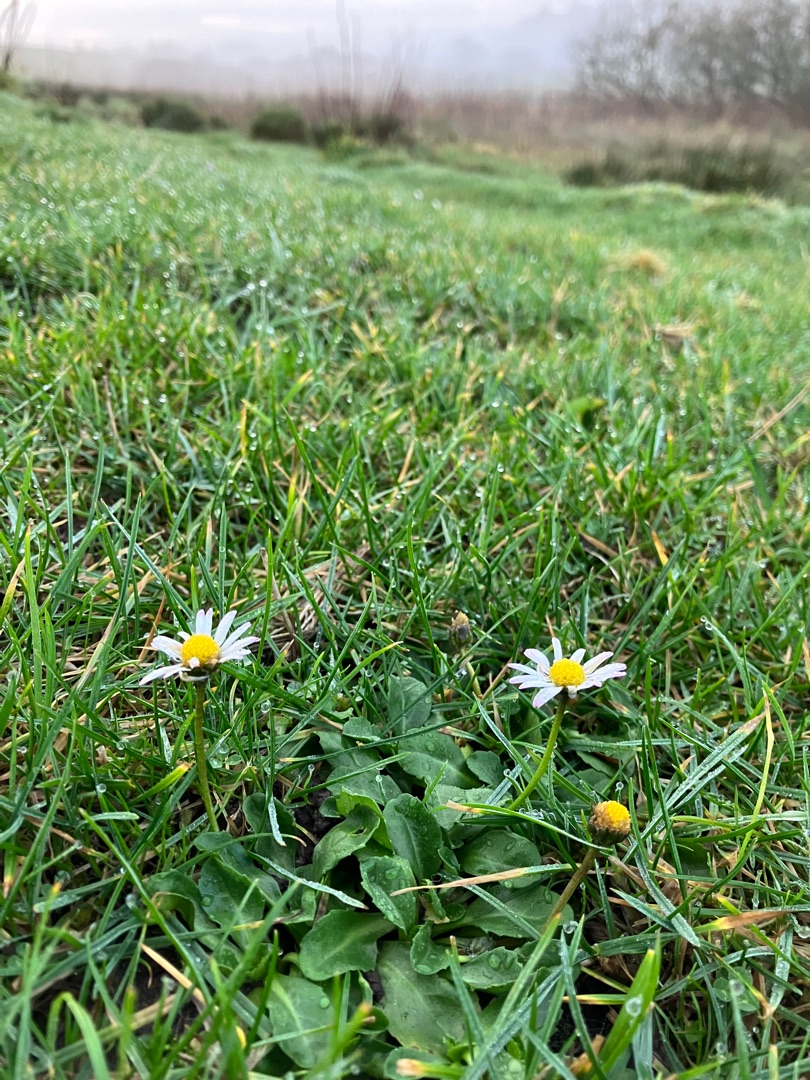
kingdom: Plantae
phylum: Tracheophyta
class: Magnoliopsida
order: Asterales
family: Asteraceae
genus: Bellis
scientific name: Bellis perennis
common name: Tusindfryd
